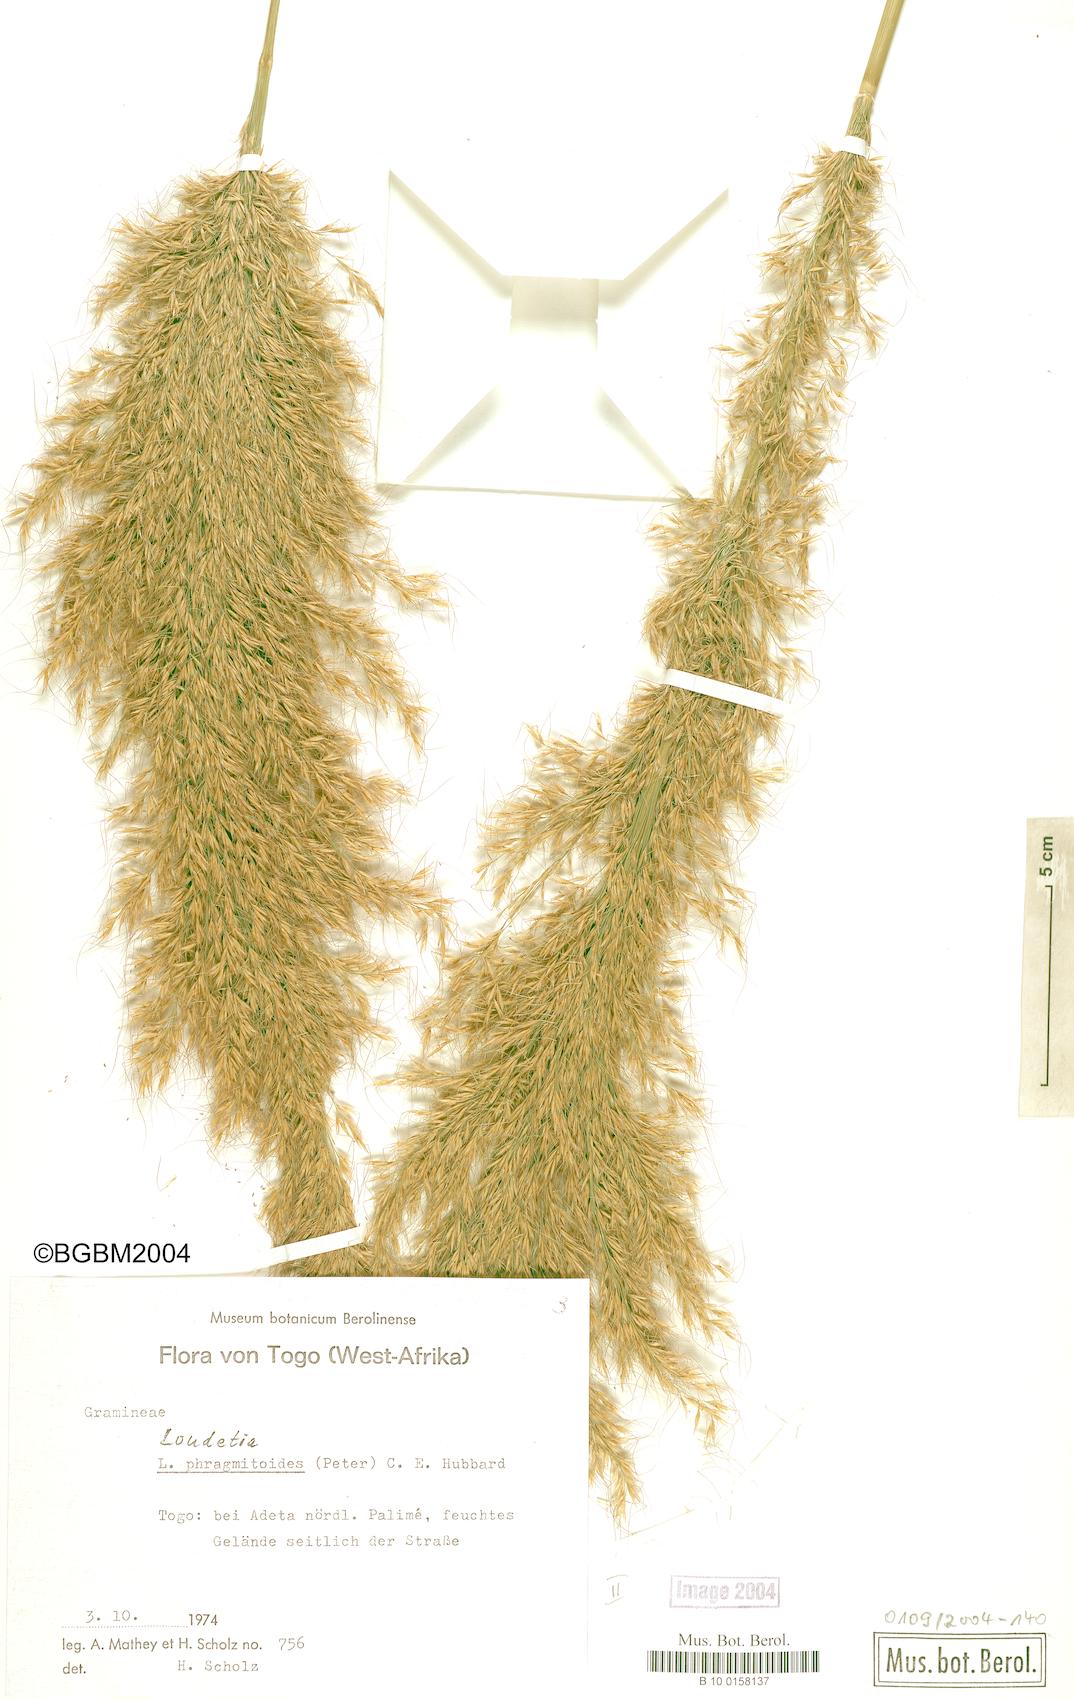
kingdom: Plantae
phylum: Tracheophyta
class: Liliopsida
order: Poales
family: Poaceae
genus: Loudetia
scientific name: Loudetia phragmitoides
